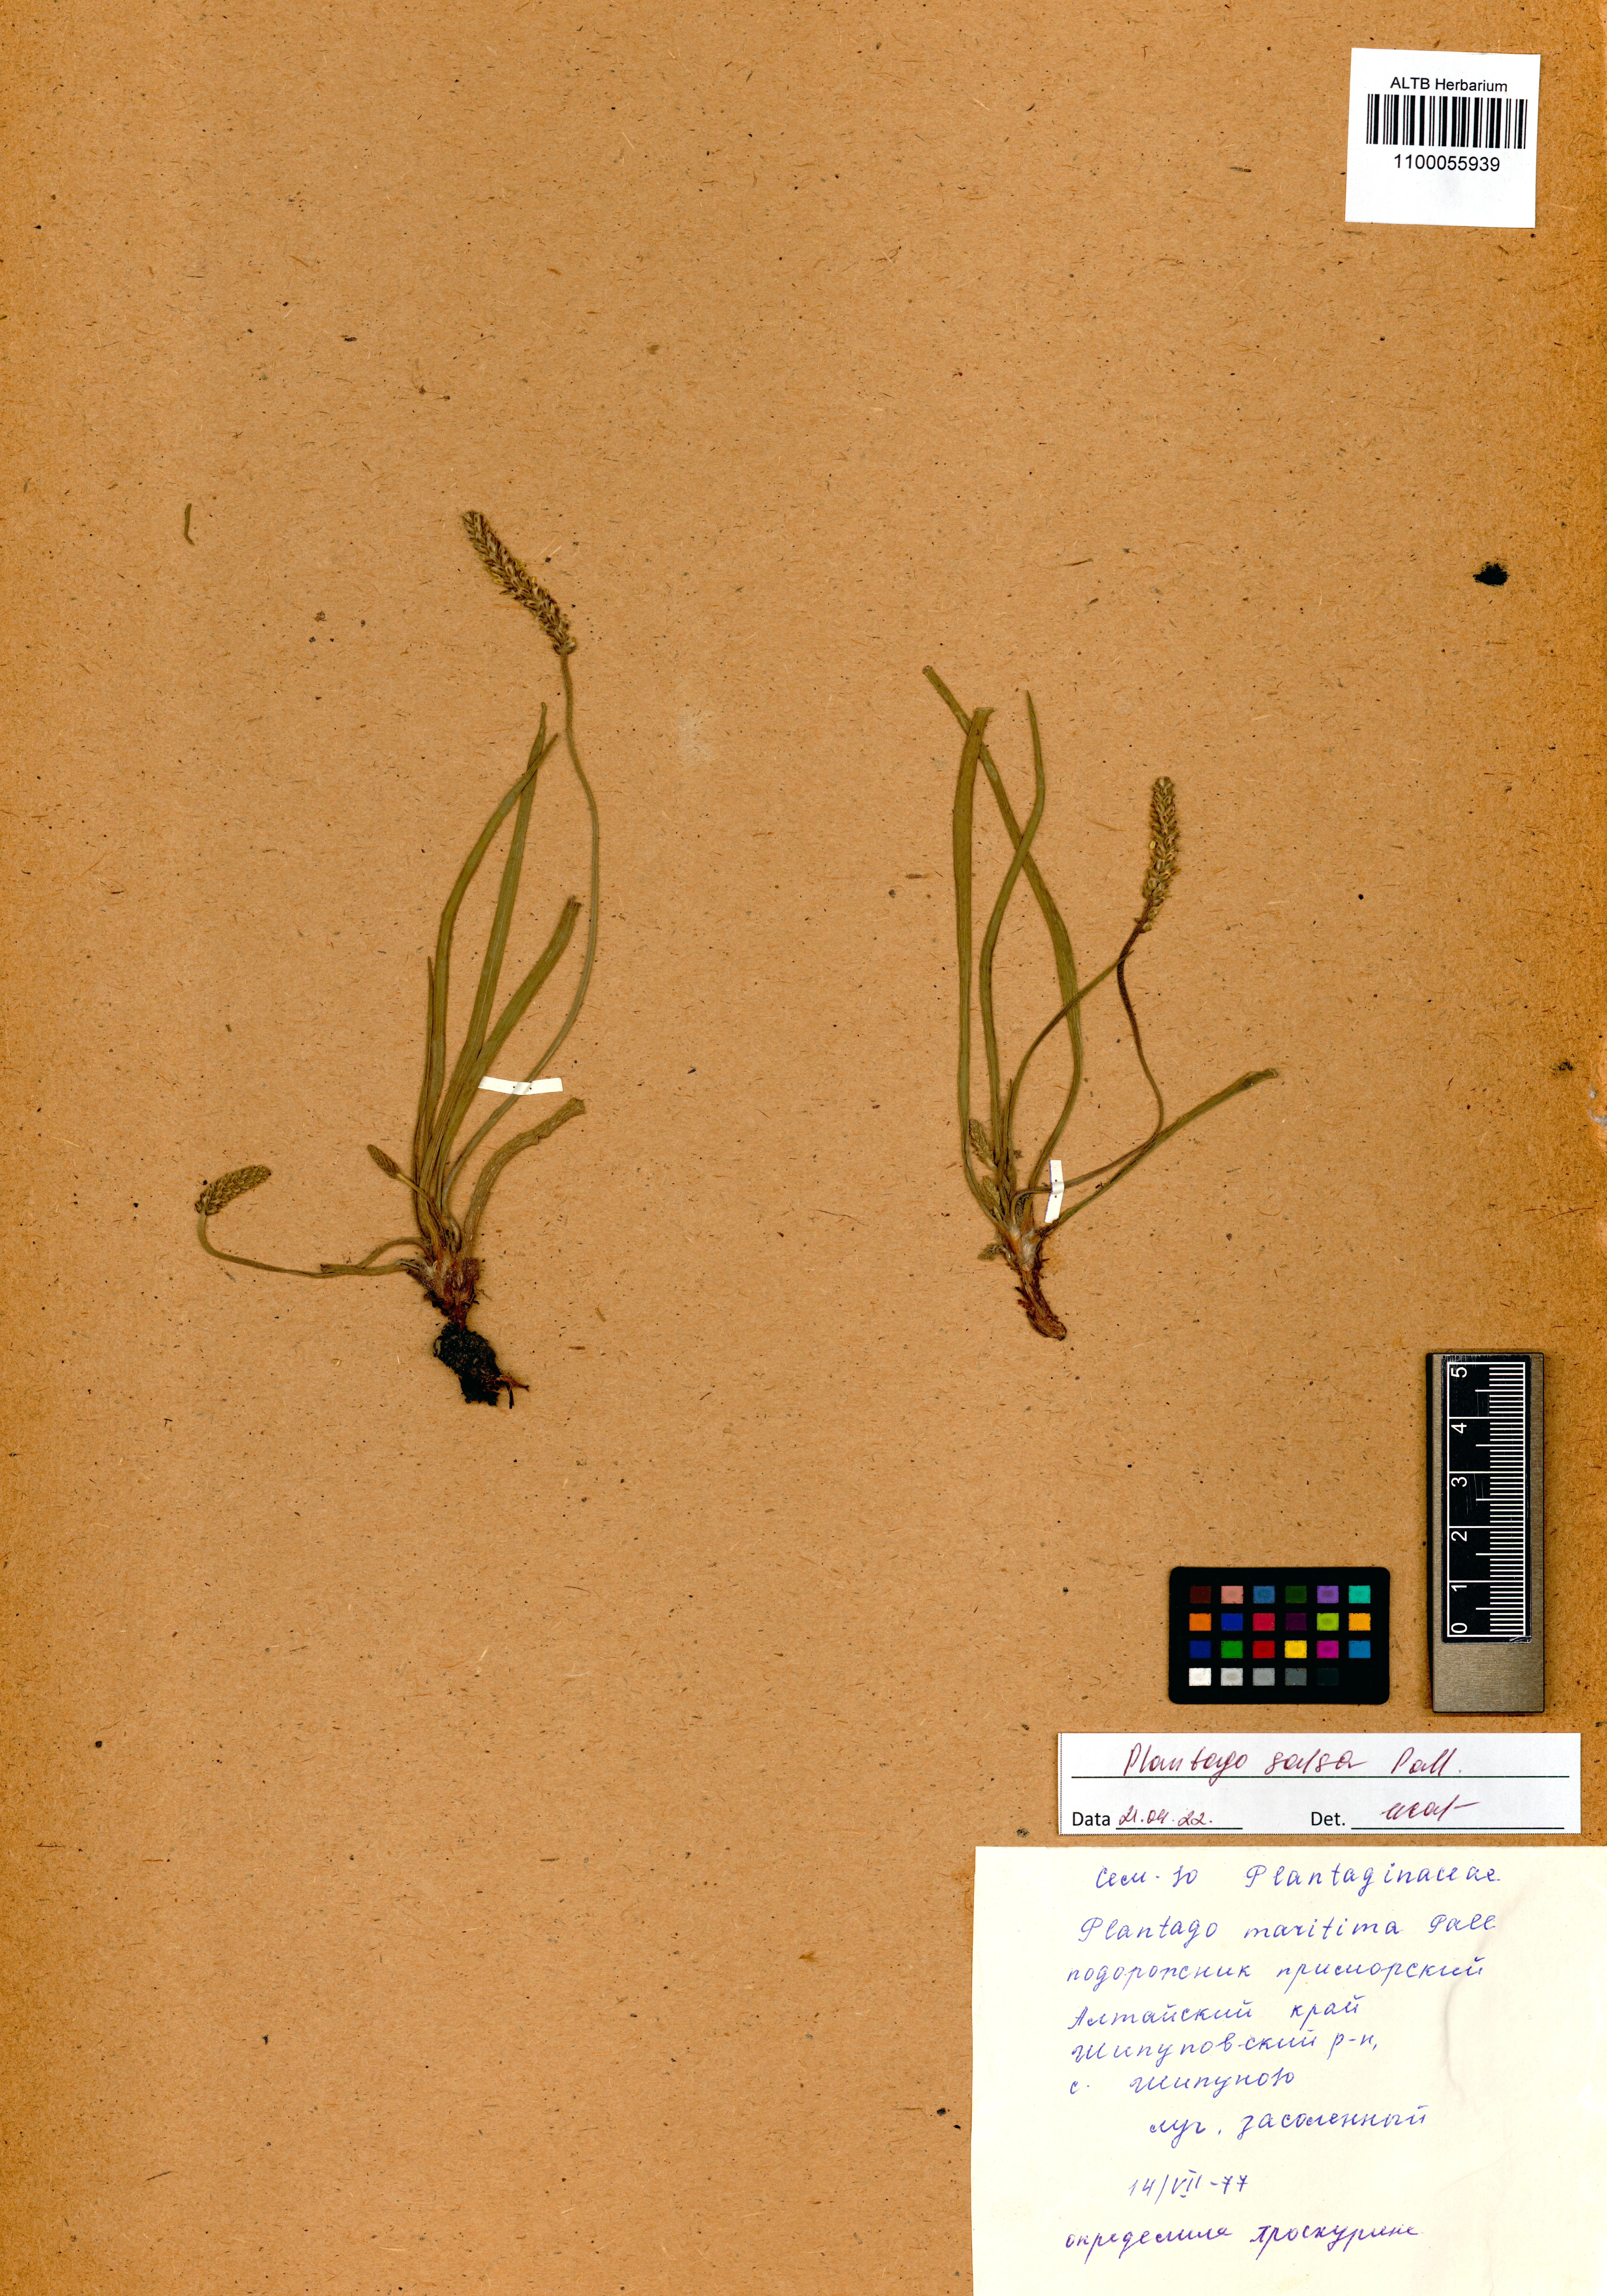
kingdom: Plantae
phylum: Tracheophyta
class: Magnoliopsida
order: Lamiales
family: Plantaginaceae
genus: Plantago
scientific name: Plantago salsa
